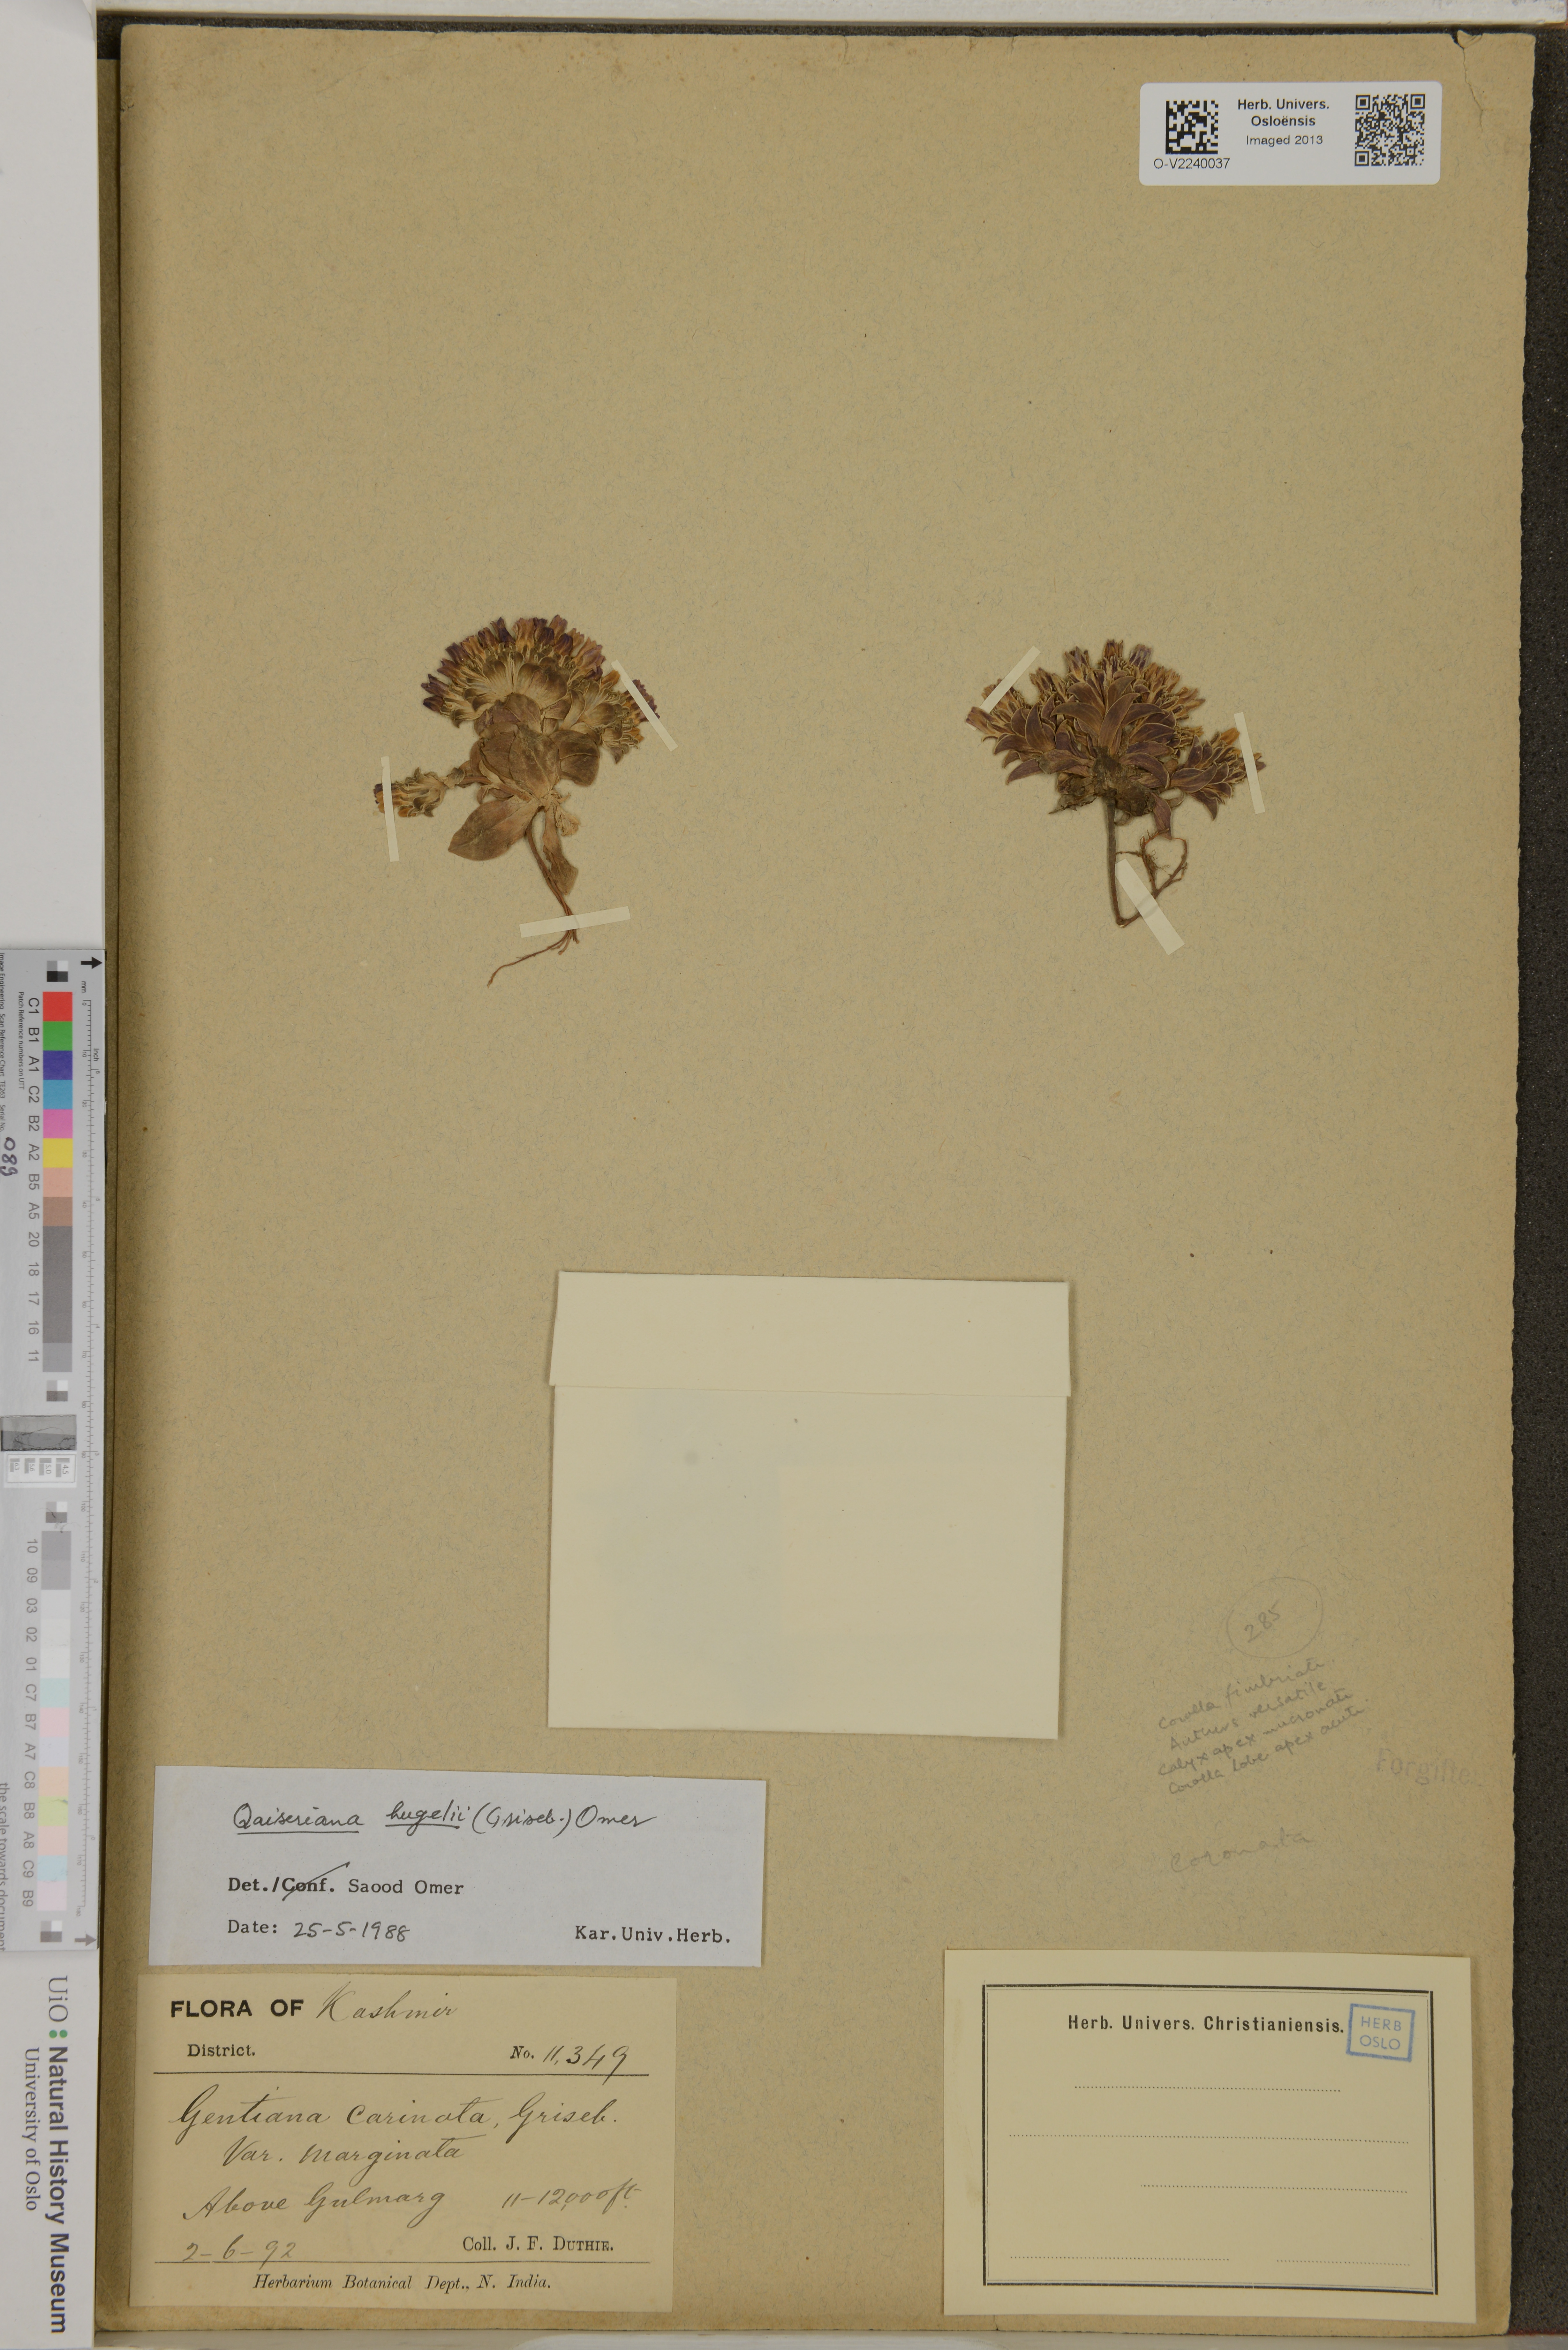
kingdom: Plantae
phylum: Tracheophyta
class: Magnoliopsida
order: Gentianales
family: Gentianaceae
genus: Gentiana
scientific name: Gentiana hugelii
